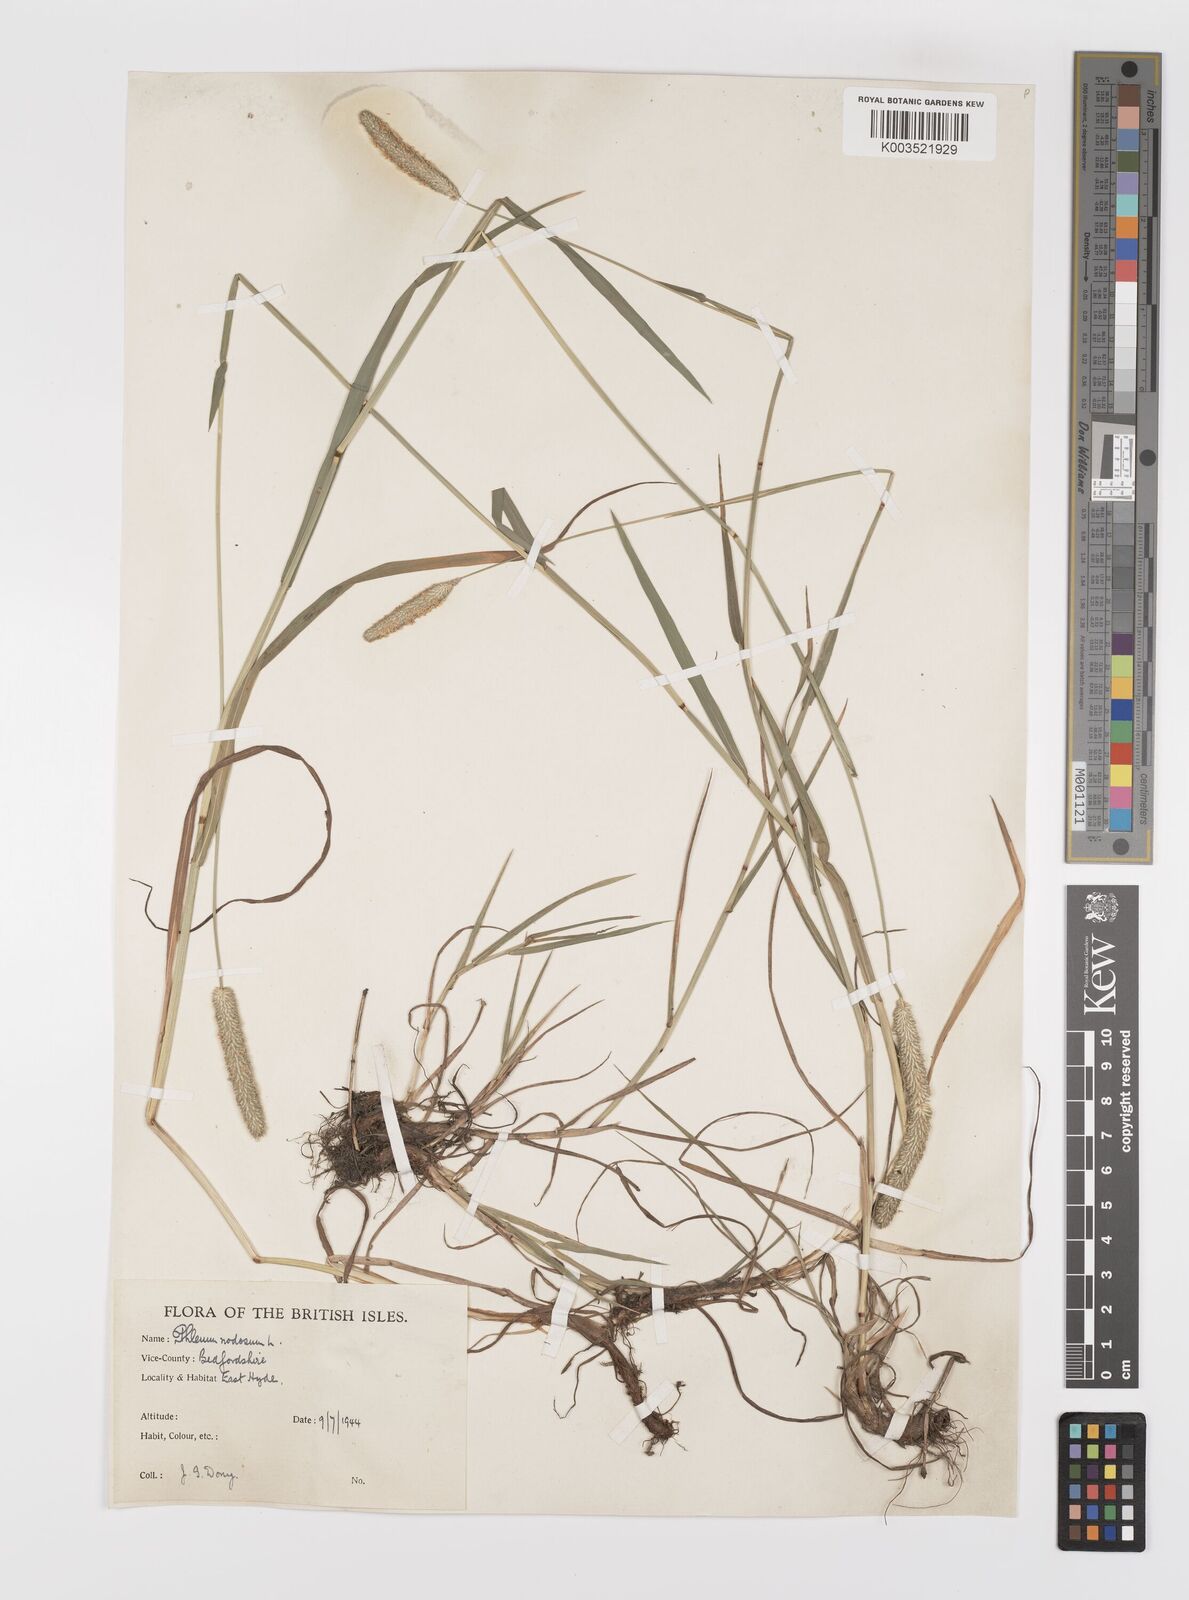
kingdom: Plantae
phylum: Tracheophyta
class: Liliopsida
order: Poales
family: Poaceae
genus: Phleum
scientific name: Phleum bertolonii
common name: Smaller cat's-tail
